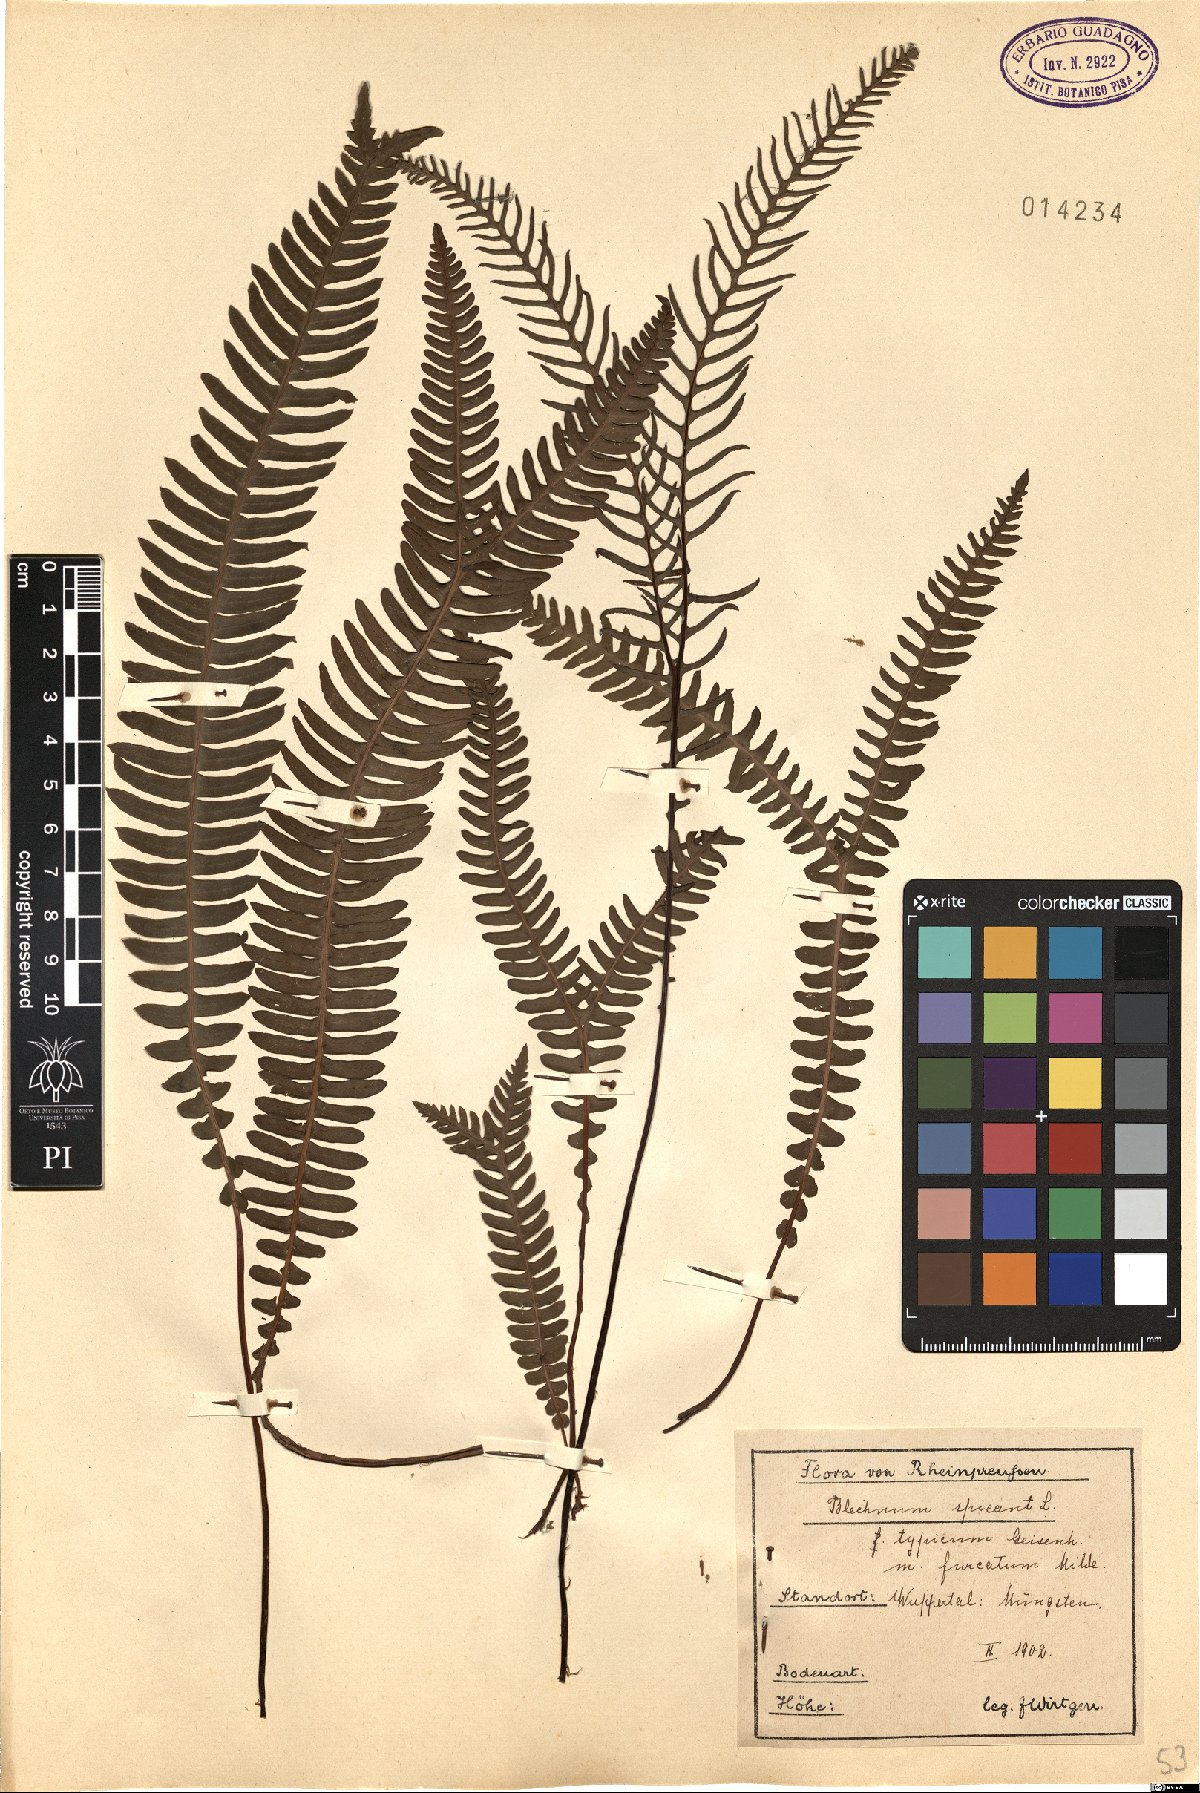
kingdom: Plantae
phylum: Tracheophyta
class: Polypodiopsida
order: Polypodiales
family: Blechnaceae
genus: Struthiopteris
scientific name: Struthiopteris spicant
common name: Deer fern
